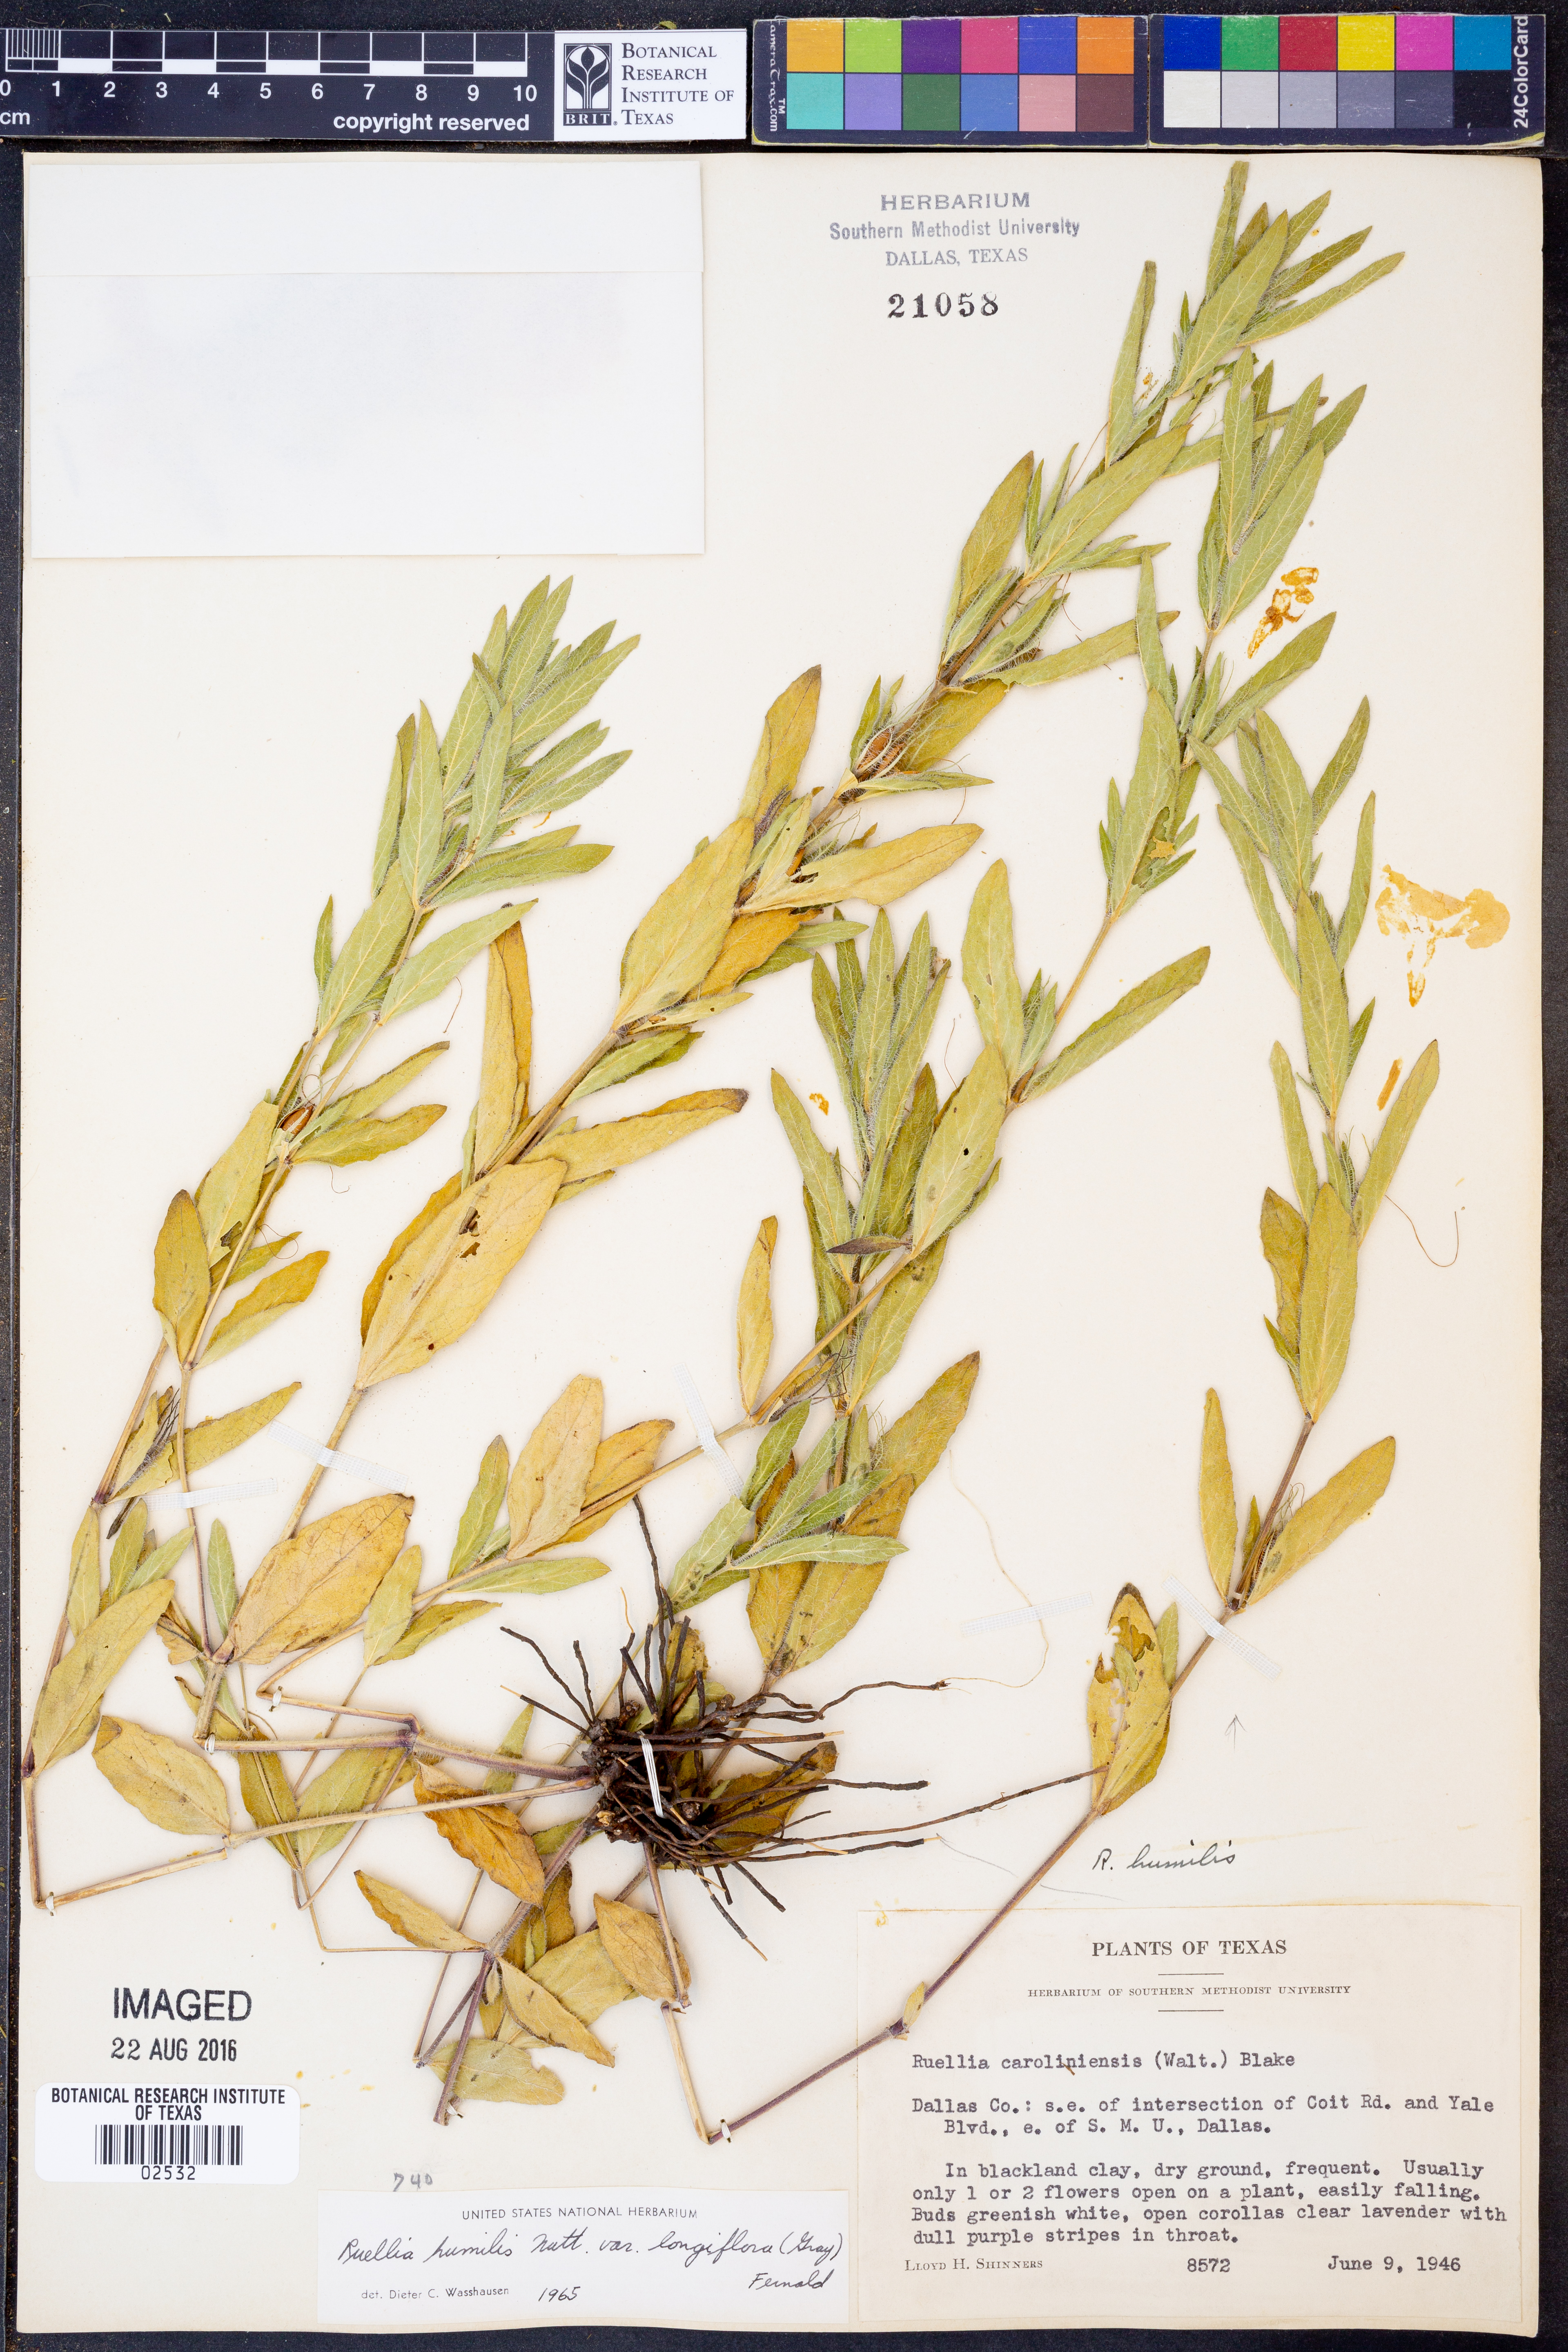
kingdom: Plantae
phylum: Tracheophyta
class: Magnoliopsida
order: Lamiales
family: Acanthaceae
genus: Ruellia
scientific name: Ruellia humilis
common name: Fringe-leaf ruellia
